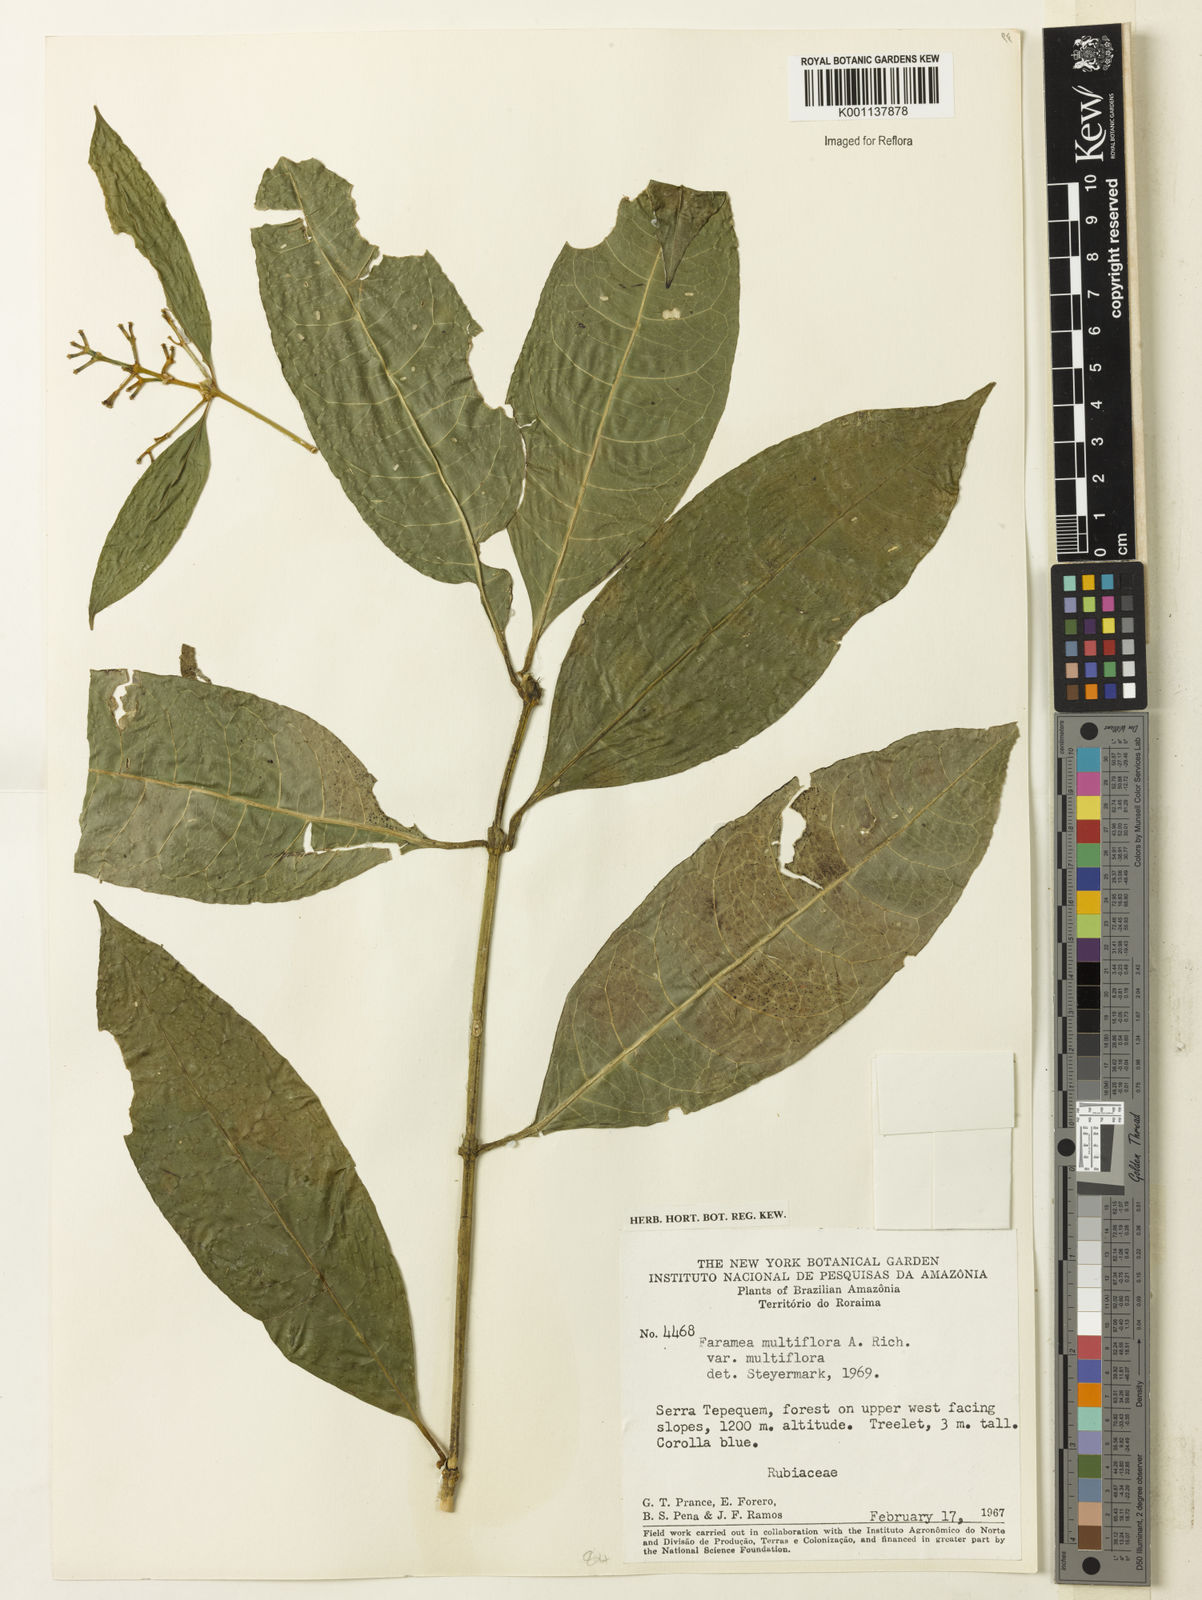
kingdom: Plantae
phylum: Tracheophyta
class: Magnoliopsida
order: Gentianales
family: Rubiaceae
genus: Faramea
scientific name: Faramea multiflora
